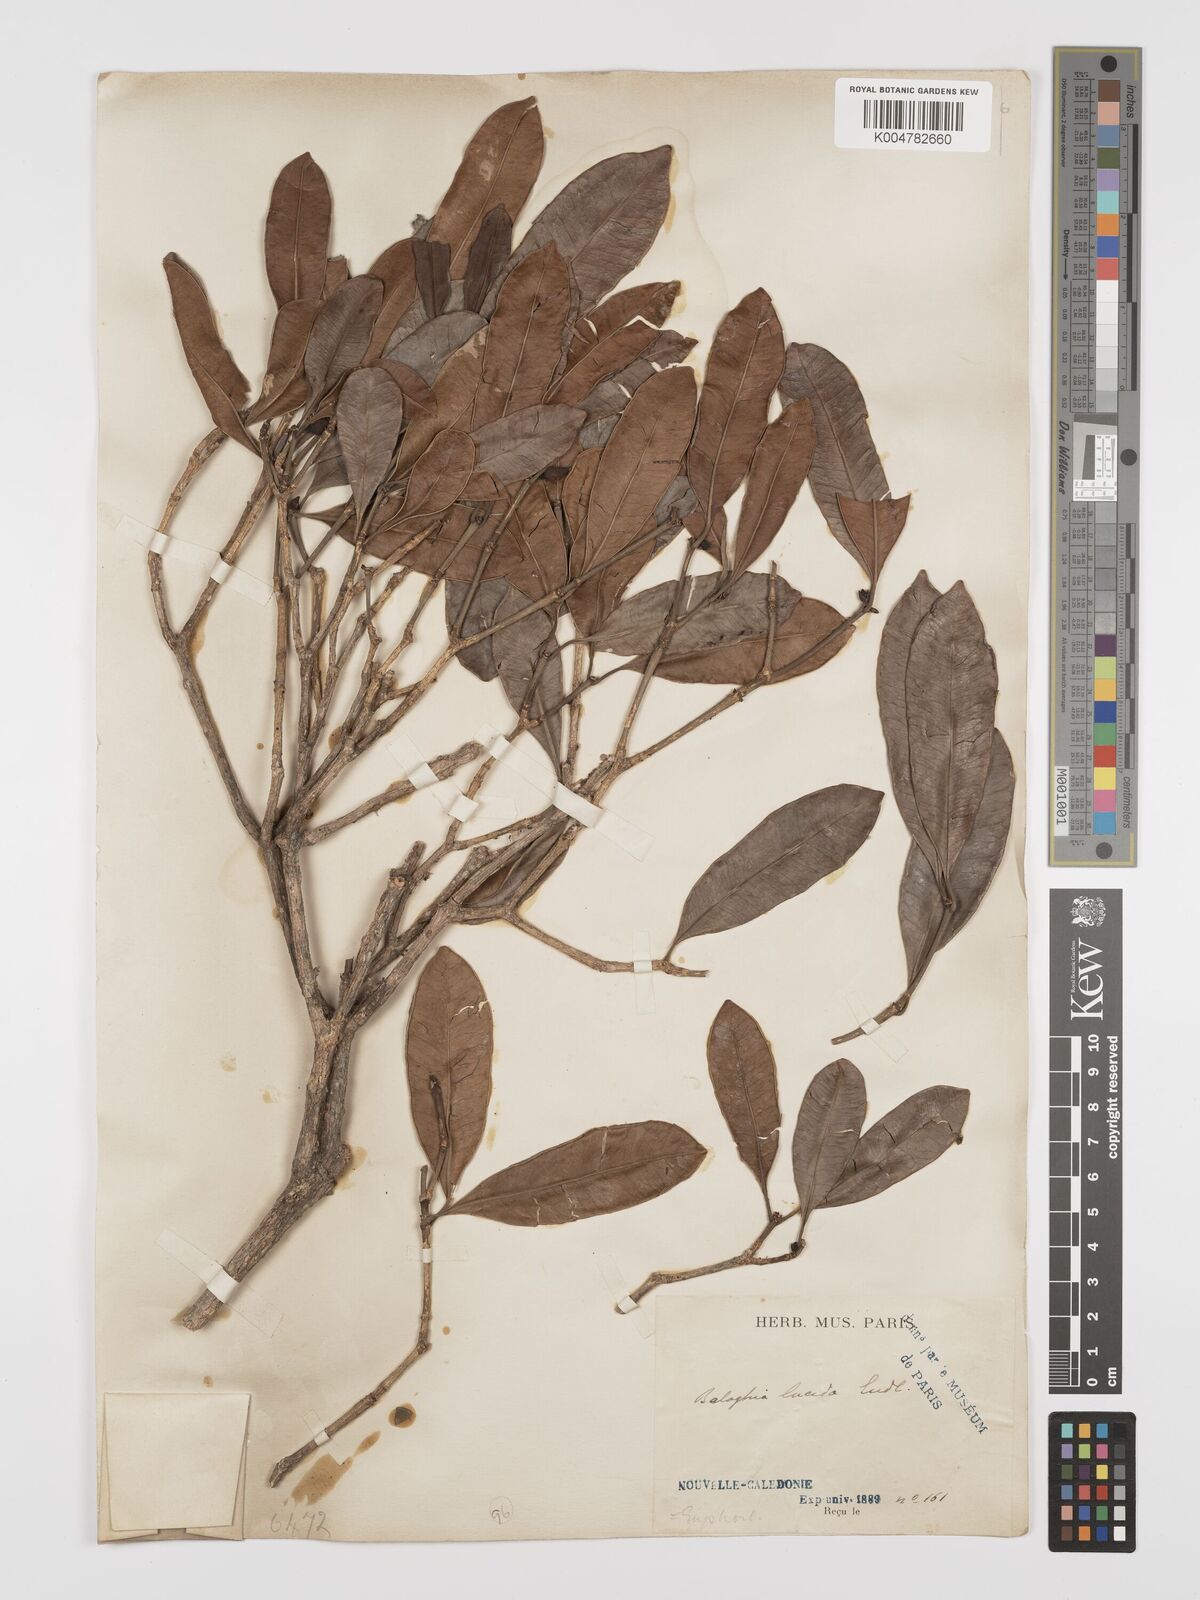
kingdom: Plantae
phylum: Tracheophyta
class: Magnoliopsida
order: Malpighiales
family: Euphorbiaceae
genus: Baloghia
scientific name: Baloghia inophylla
